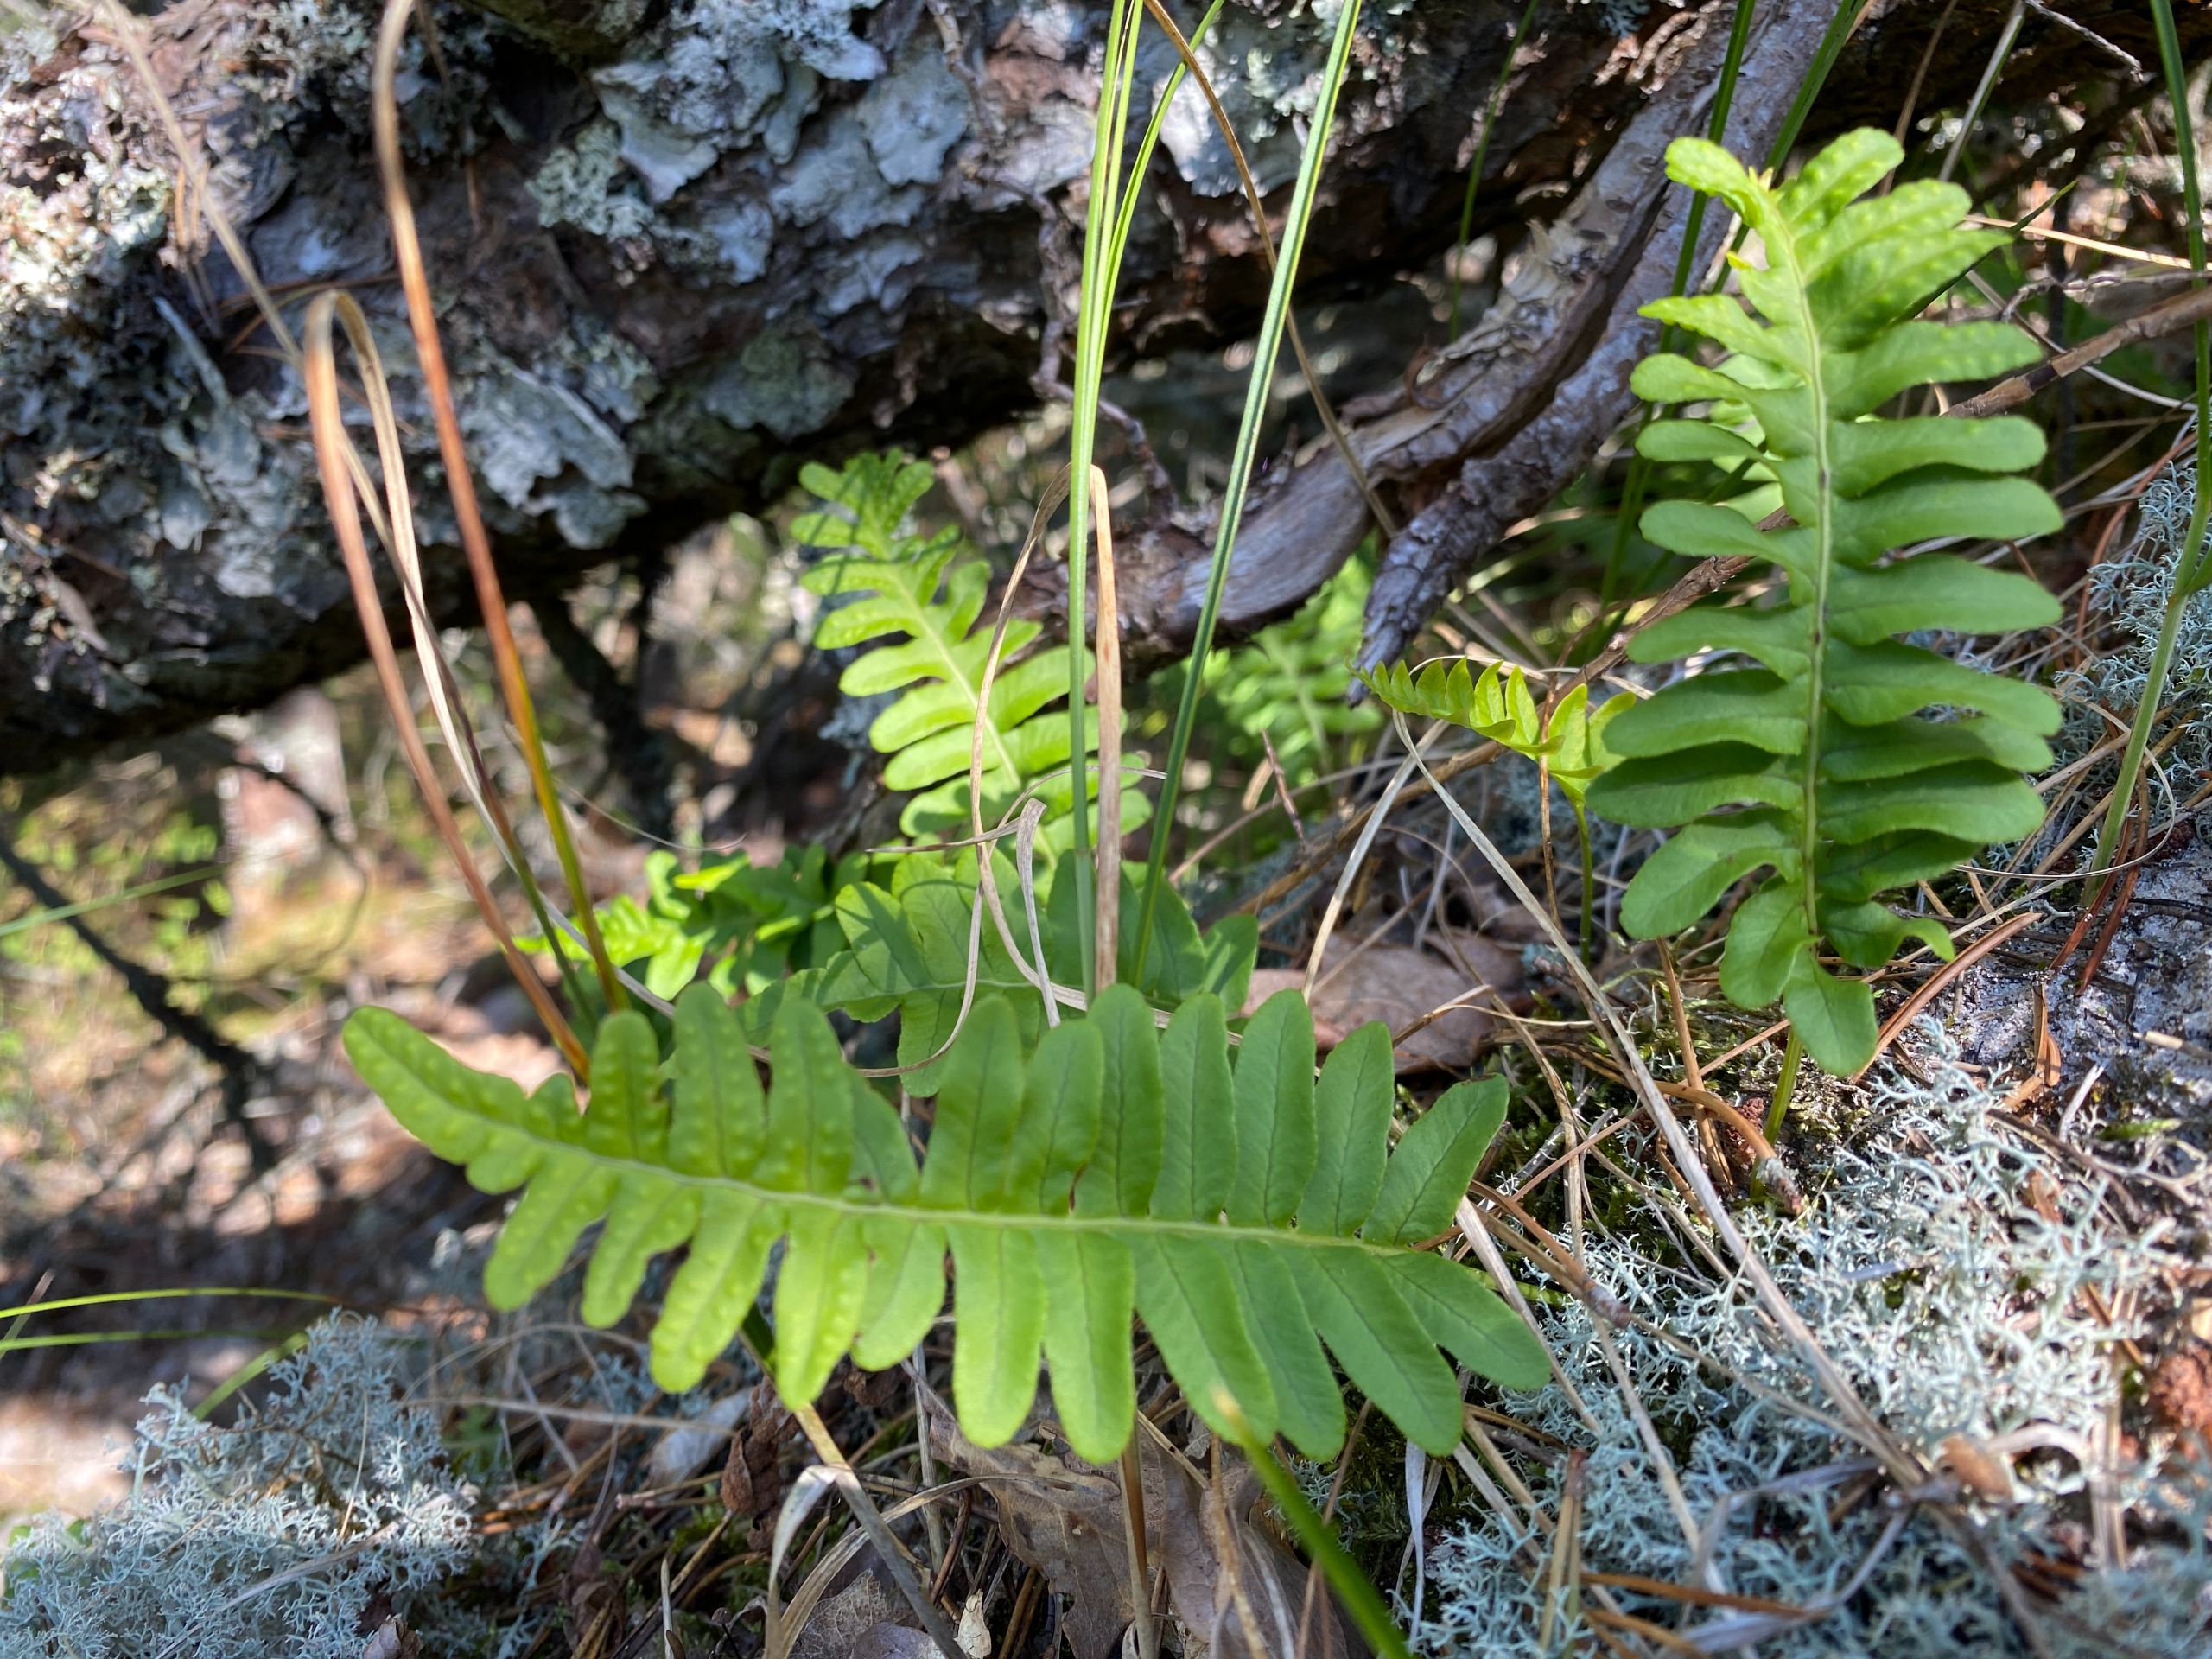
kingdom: Plantae
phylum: Tracheophyta
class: Polypodiopsida
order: Polypodiales
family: Polypodiaceae
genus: Polypodium
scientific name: Polypodium vulgare
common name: Almindelig engelsød
